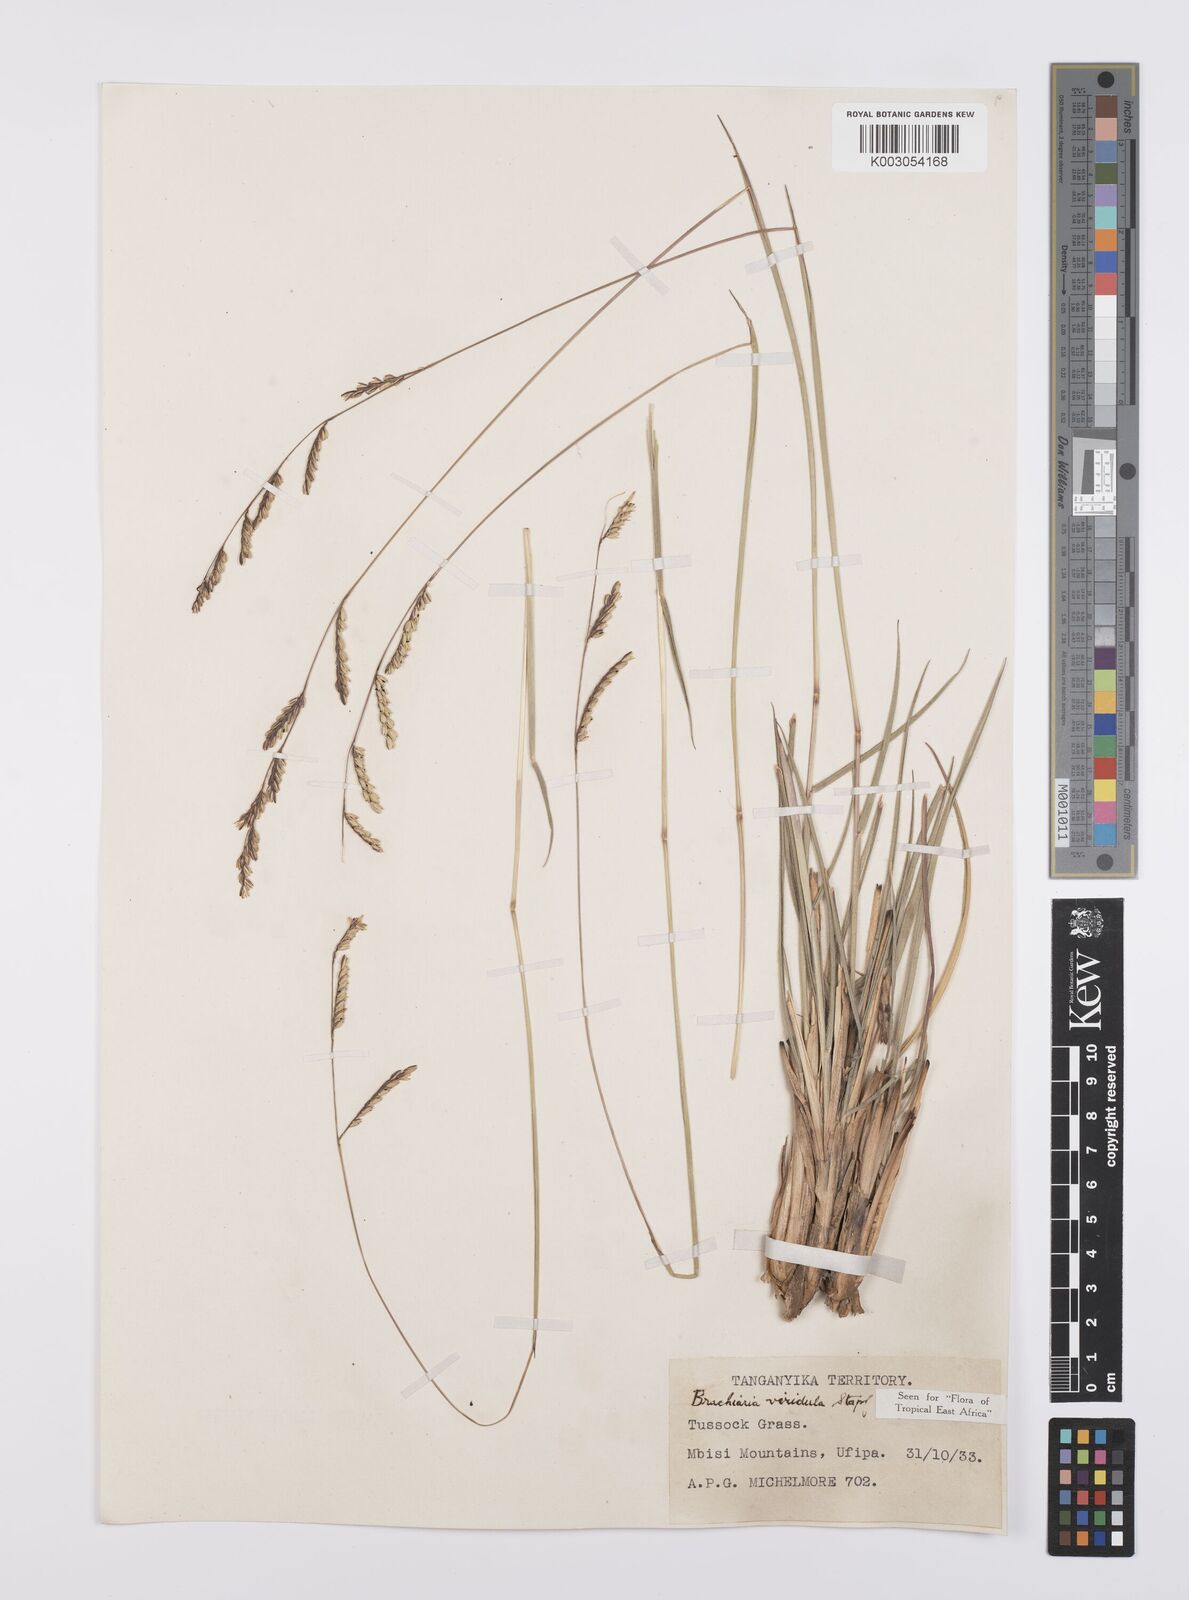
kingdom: Plantae
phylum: Tracheophyta
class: Liliopsida
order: Poales
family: Poaceae
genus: Urochloa
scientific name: Urochloa bovonei
